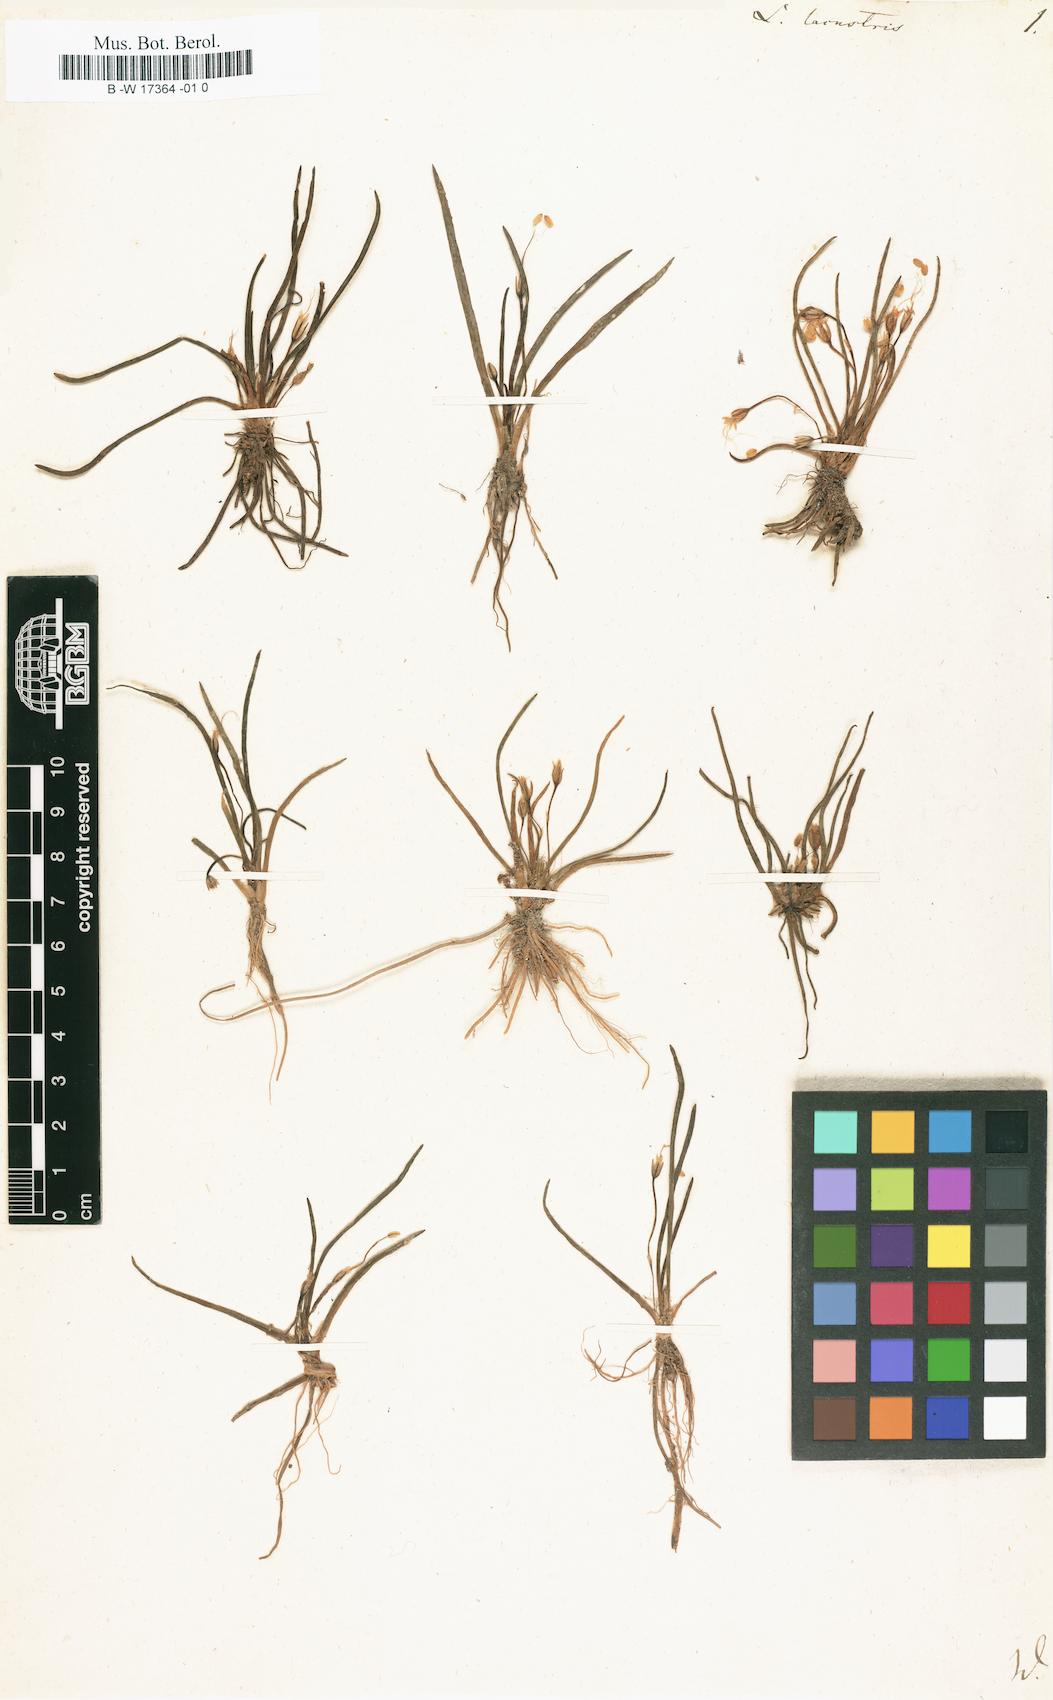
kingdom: Plantae
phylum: Tracheophyta
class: Magnoliopsida
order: Lamiales
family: Plantaginaceae
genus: Littorella
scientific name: Littorella uniflora
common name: Shoreweed
